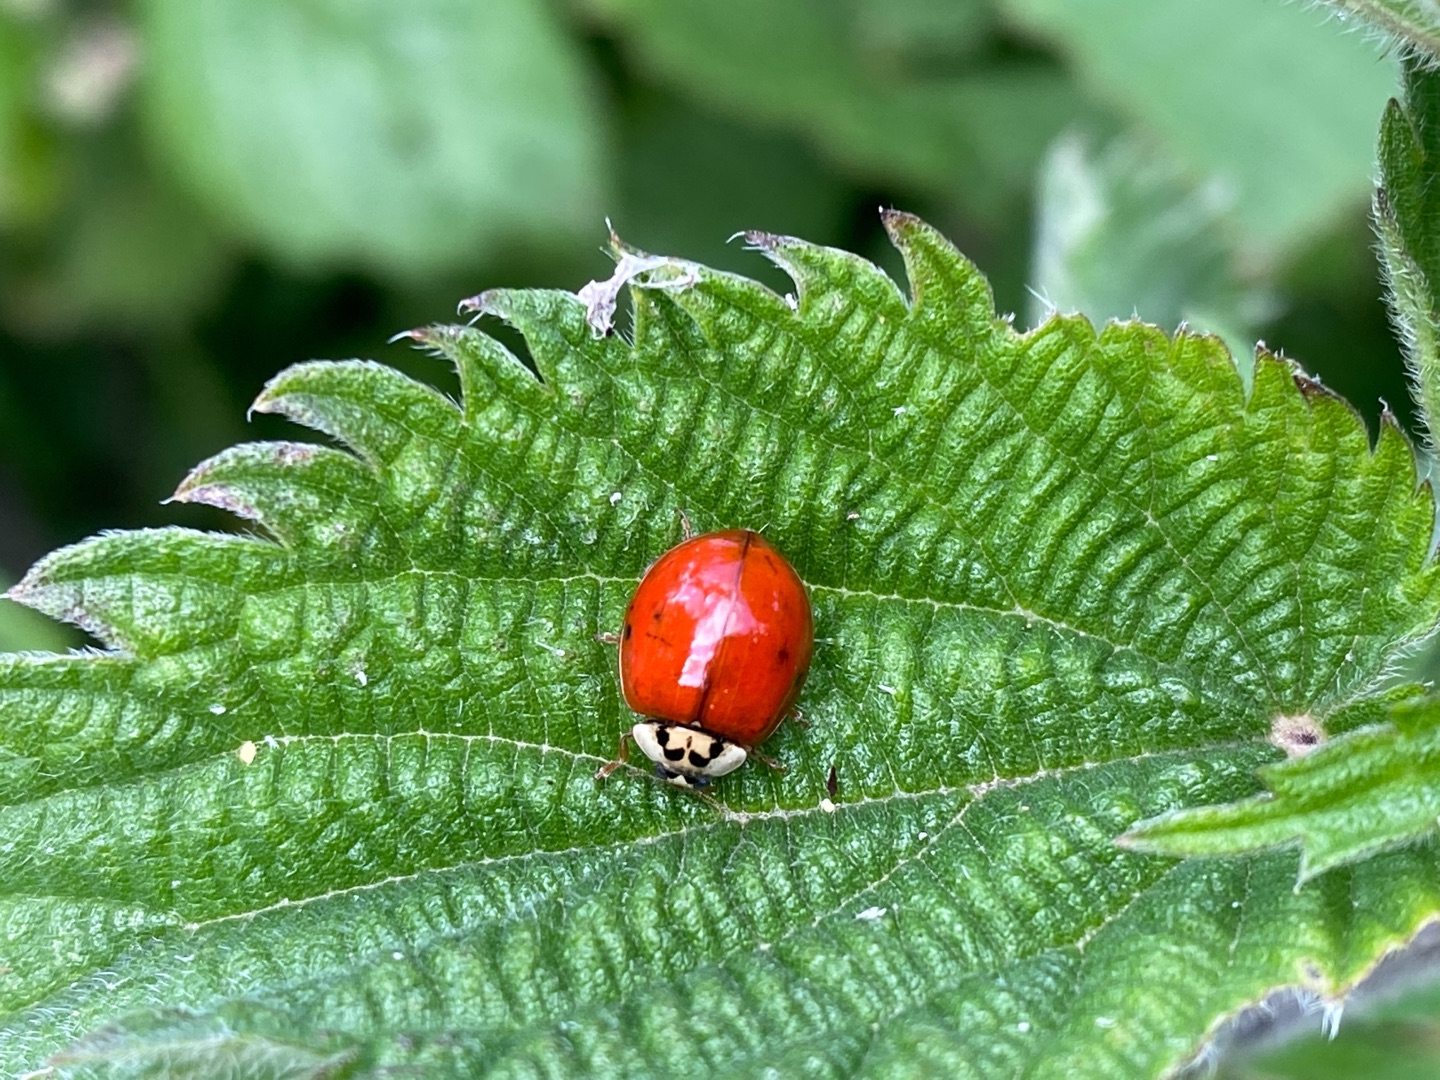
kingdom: Animalia
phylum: Arthropoda
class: Insecta
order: Coleoptera
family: Coccinellidae
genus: Harmonia
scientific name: Harmonia axyridis
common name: Harlekinmariehøne
